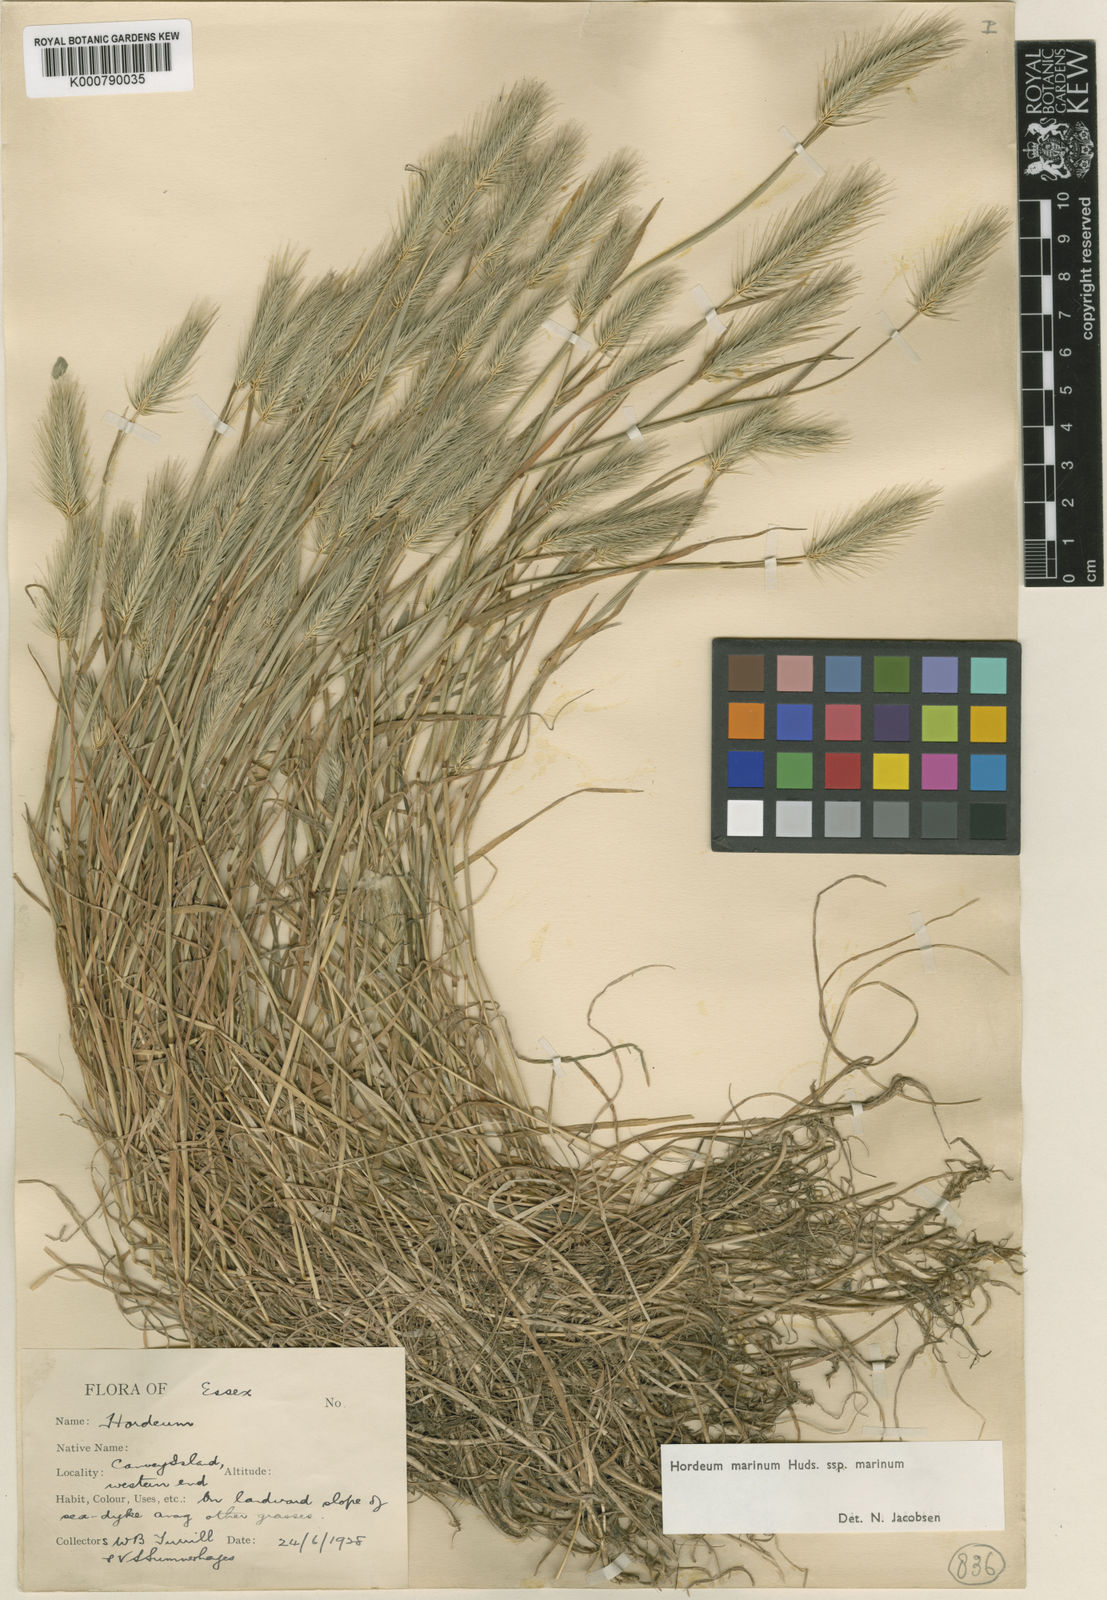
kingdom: Plantae
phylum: Tracheophyta
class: Liliopsida
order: Poales
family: Poaceae
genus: Hordeum
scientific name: Hordeum marinum
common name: Sea barley
